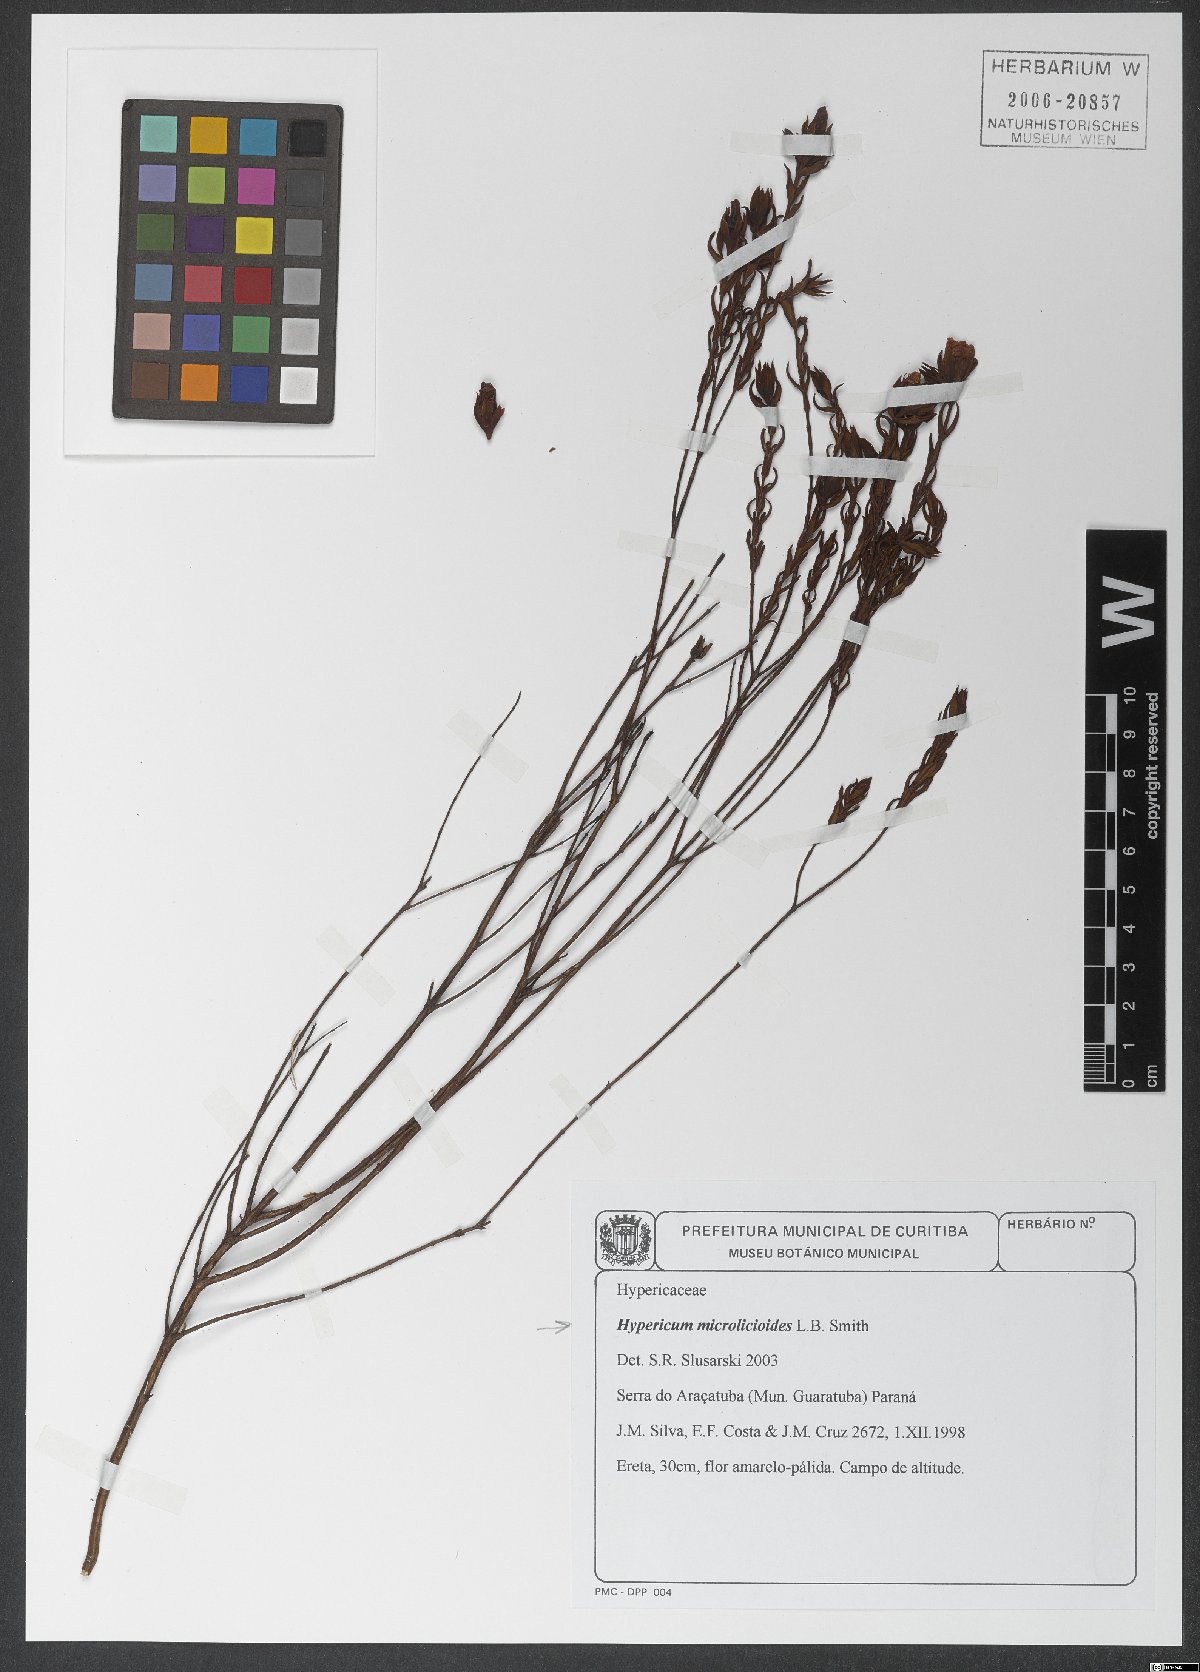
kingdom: Plantae
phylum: Tracheophyta
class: Magnoliopsida
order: Malpighiales
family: Hypericaceae
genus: Hypericum
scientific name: Hypericum microlicioides
